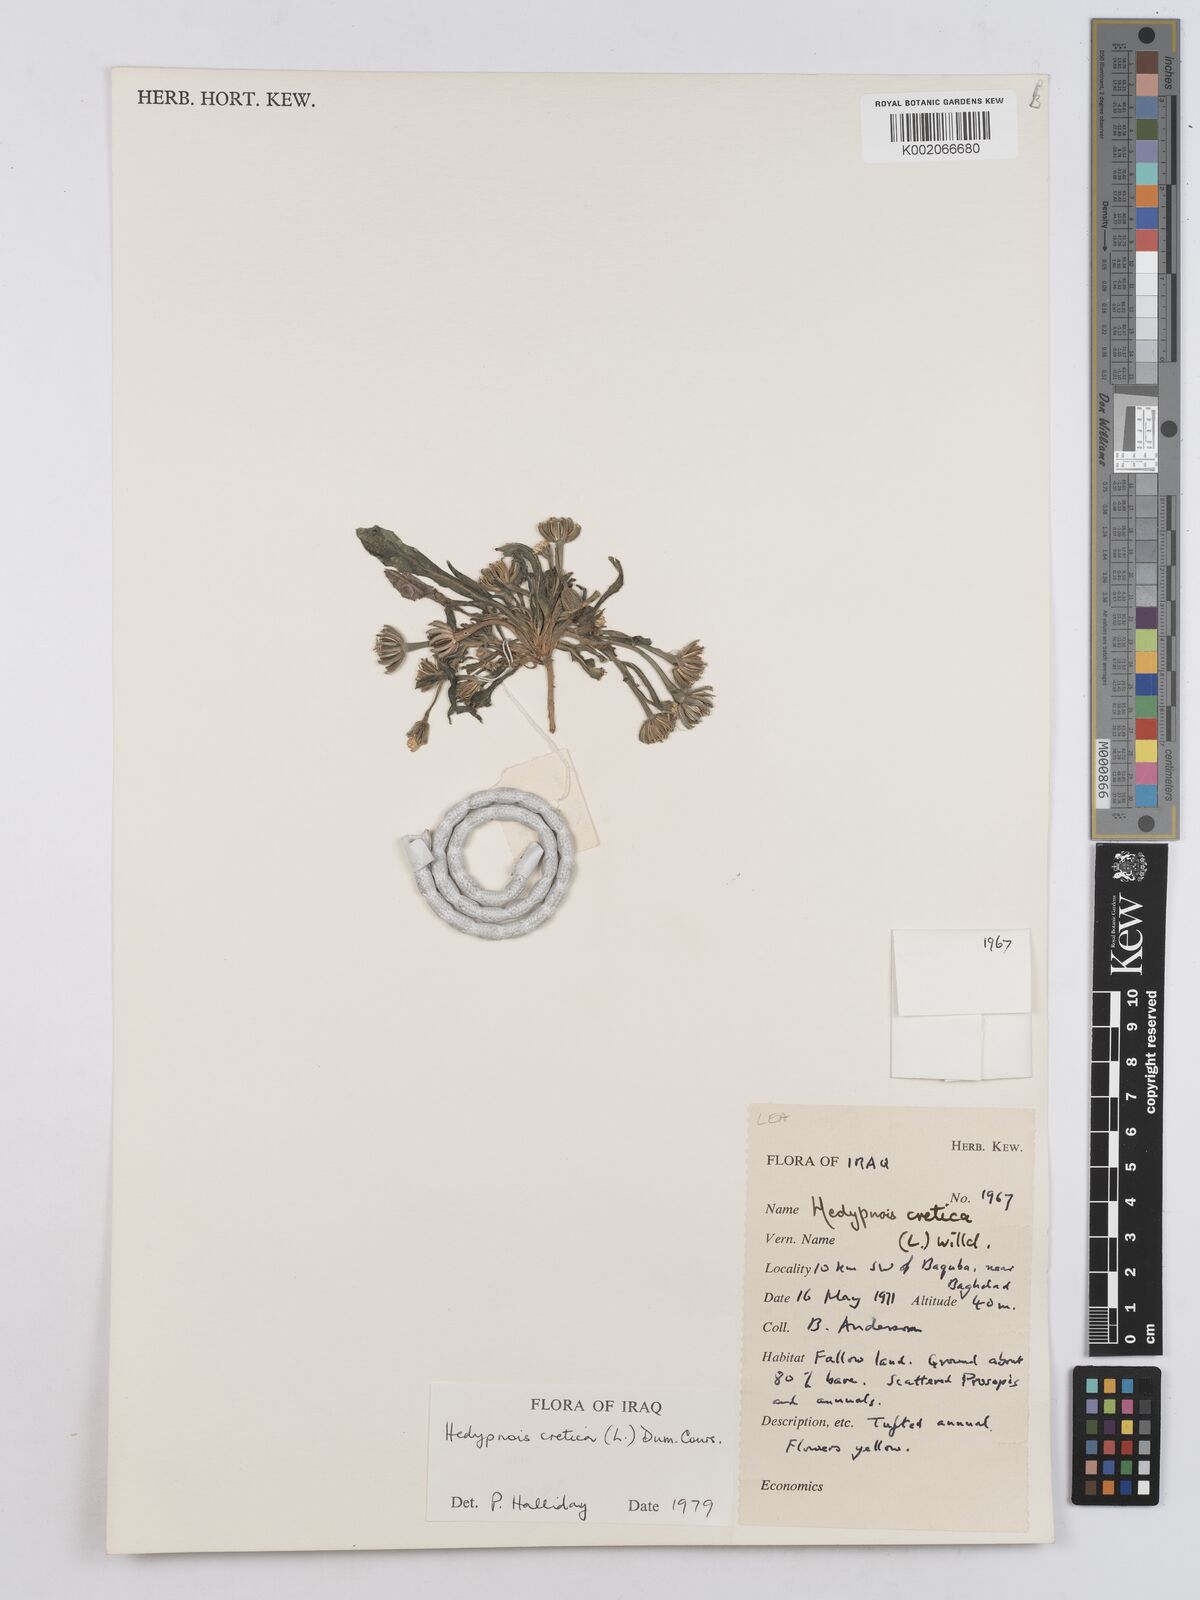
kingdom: Plantae
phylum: Tracheophyta
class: Magnoliopsida
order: Asterales
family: Asteraceae
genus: Hedypnois
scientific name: Hedypnois cretica
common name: Scaly hawkbit
